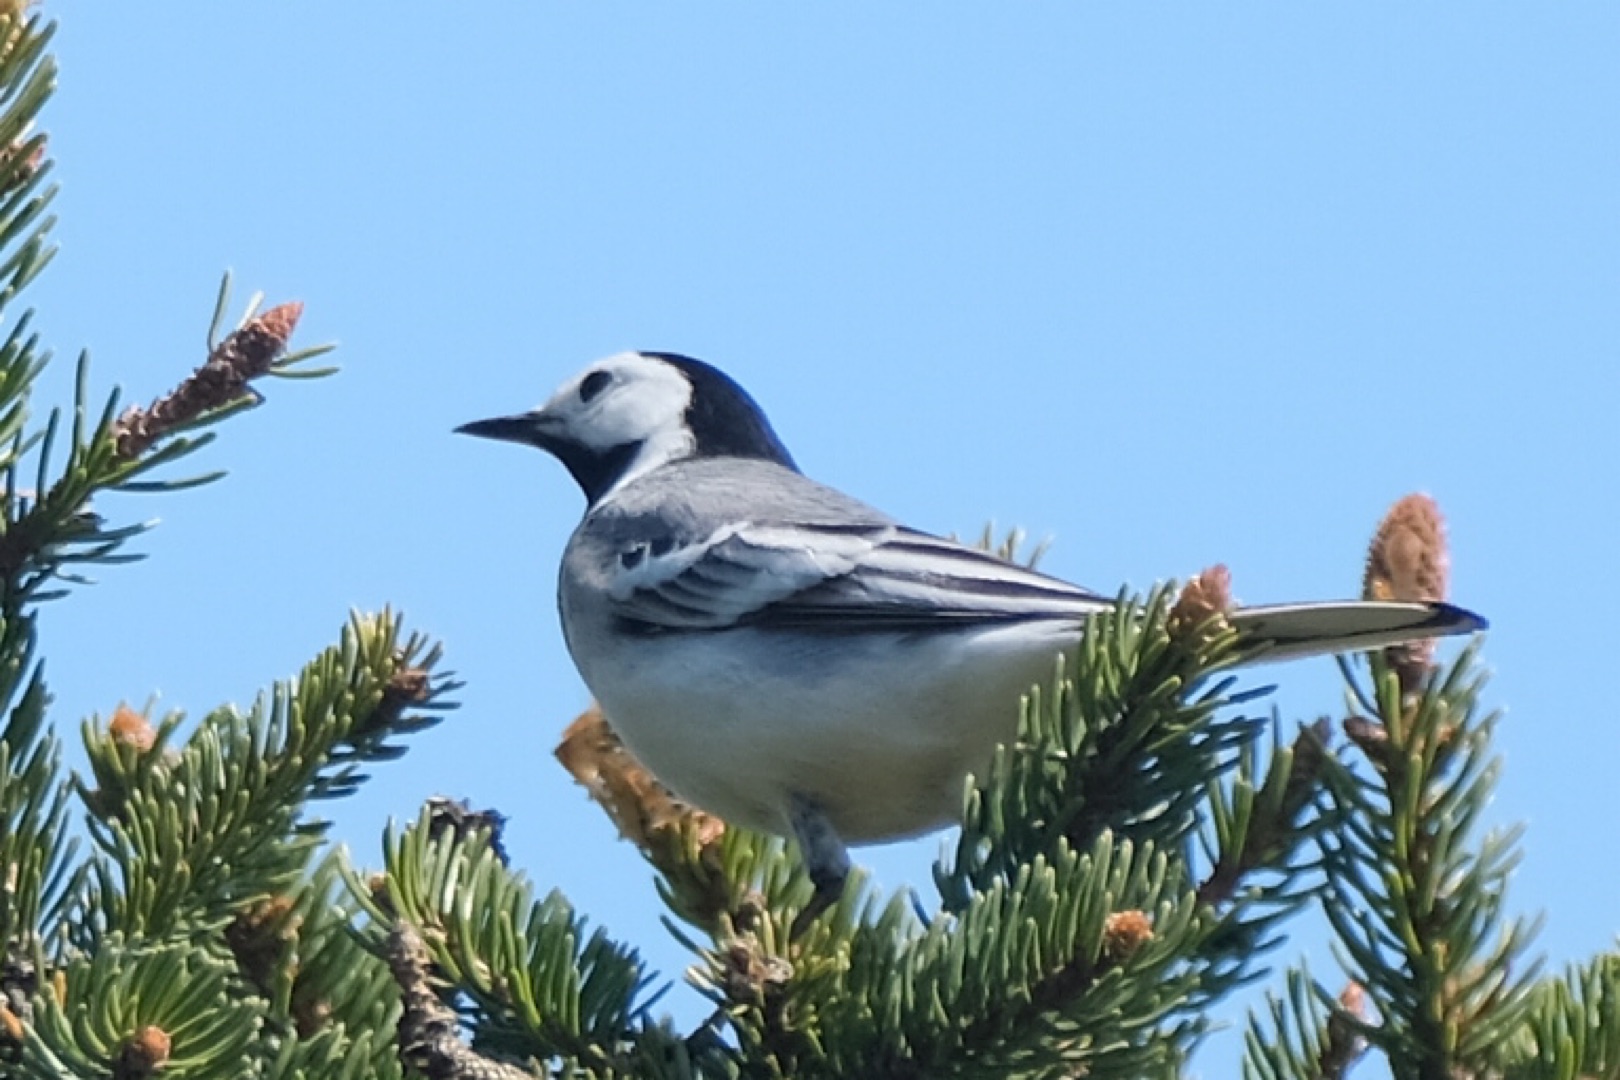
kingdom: Animalia
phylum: Chordata
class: Aves
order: Passeriformes
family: Motacillidae
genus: Motacilla
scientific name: Motacilla alba
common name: Hvid vipstjert
